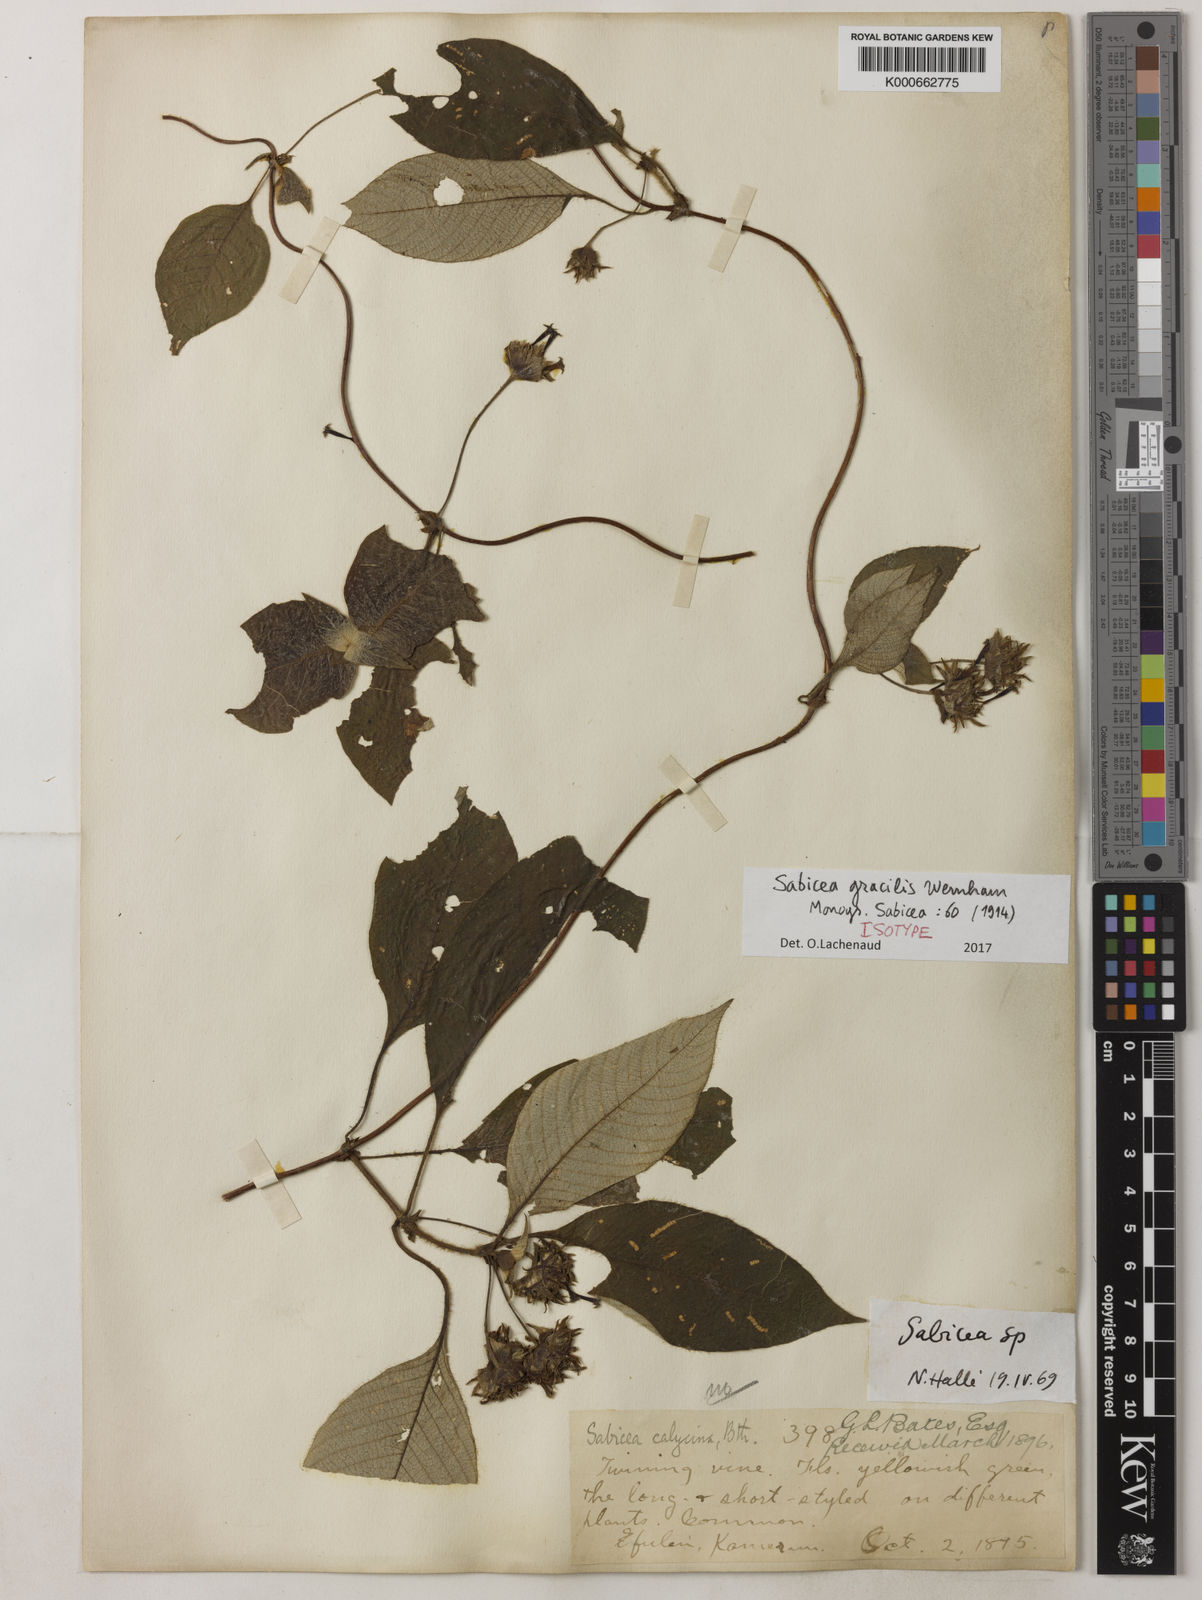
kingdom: Plantae
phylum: Tracheophyta
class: Magnoliopsida
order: Gentianales
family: Rubiaceae
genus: Sabicea
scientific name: Sabicea gracilis
